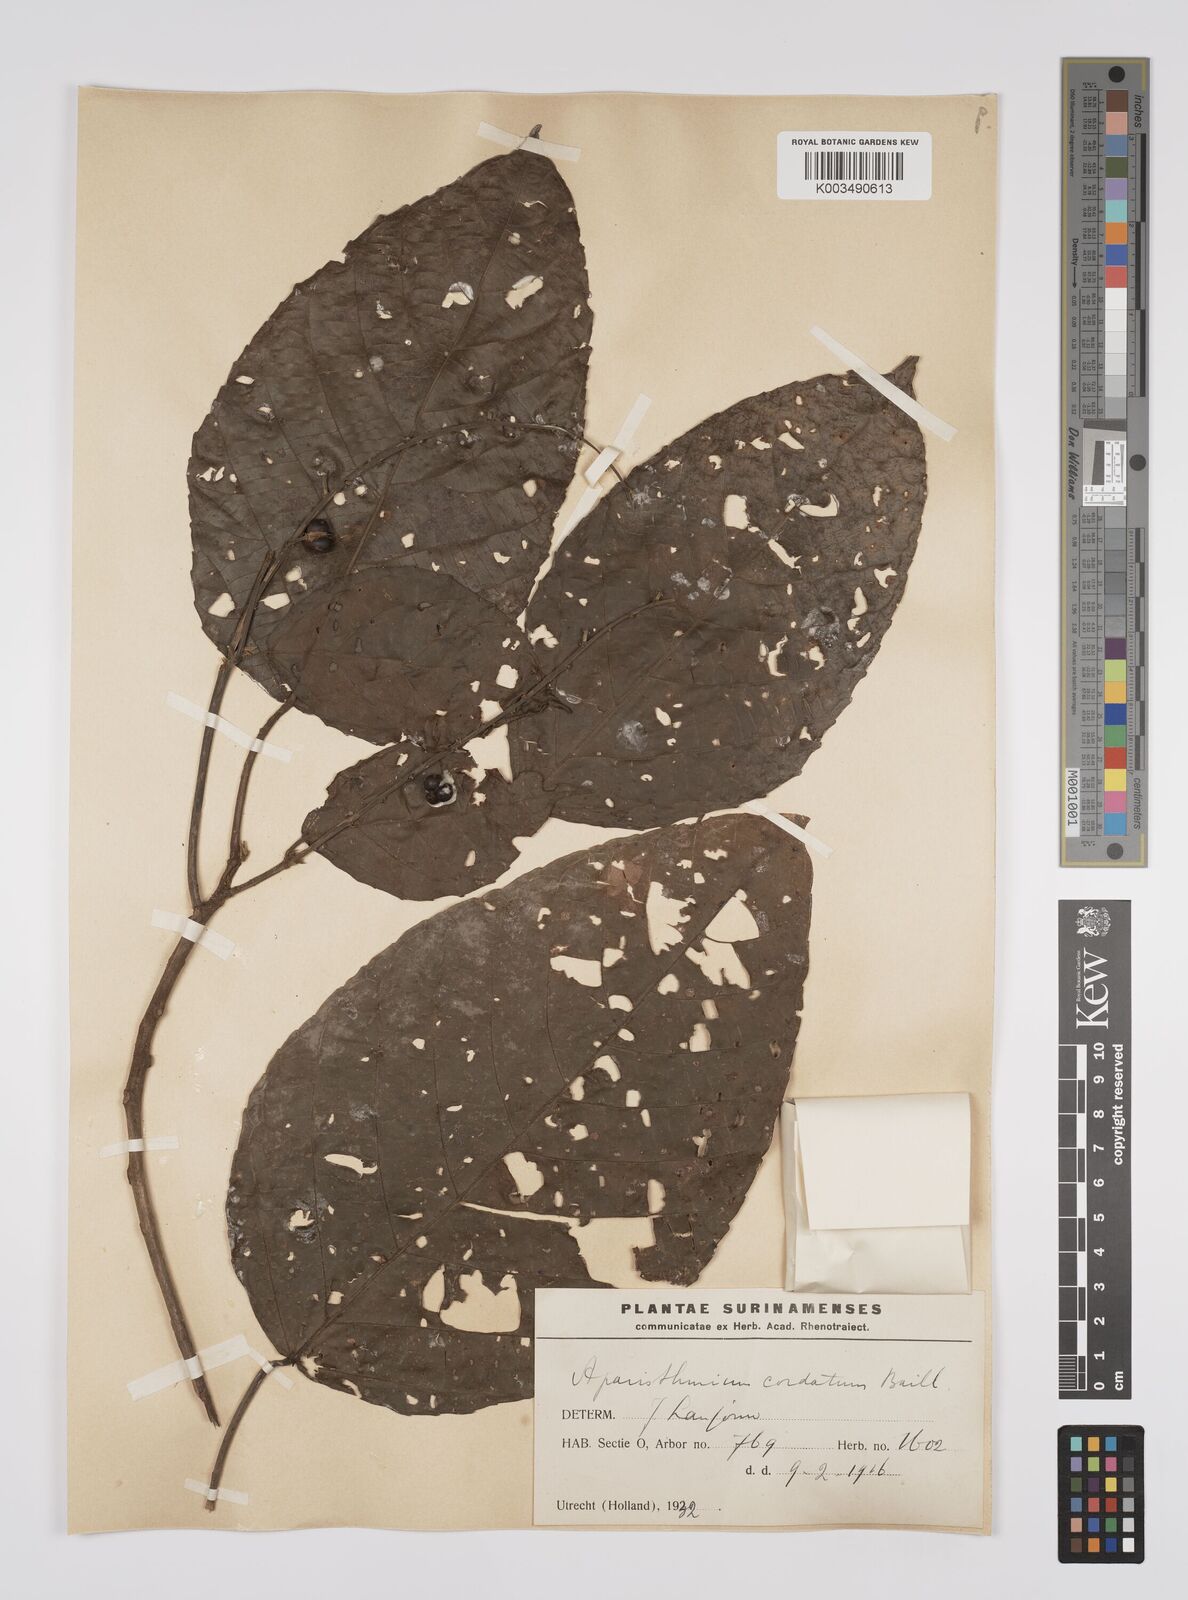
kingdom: Plantae
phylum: Tracheophyta
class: Magnoliopsida
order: Malpighiales
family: Euphorbiaceae
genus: Aparisthmium
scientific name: Aparisthmium cordatum
